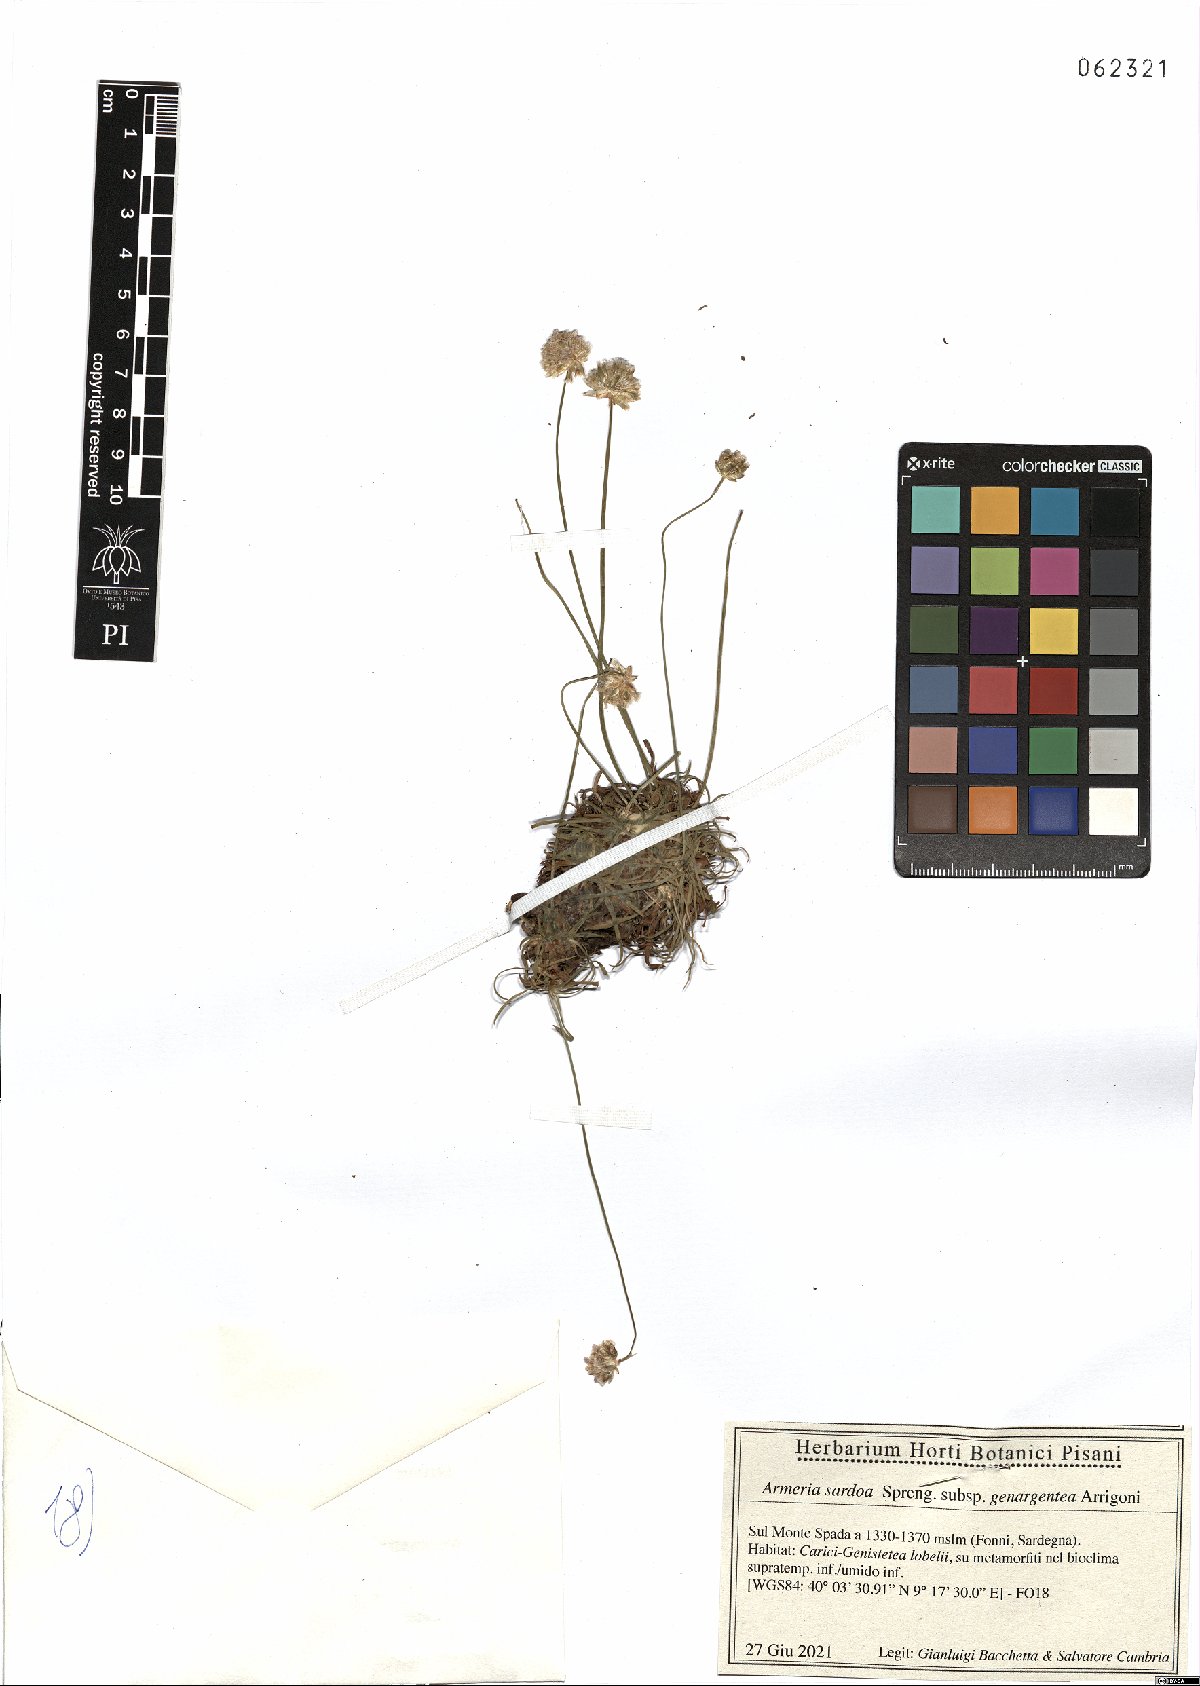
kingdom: Plantae
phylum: Tracheophyta
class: Magnoliopsida
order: Caryophyllales
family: Plumbaginaceae
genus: Armeria
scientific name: Armeria sardoa
